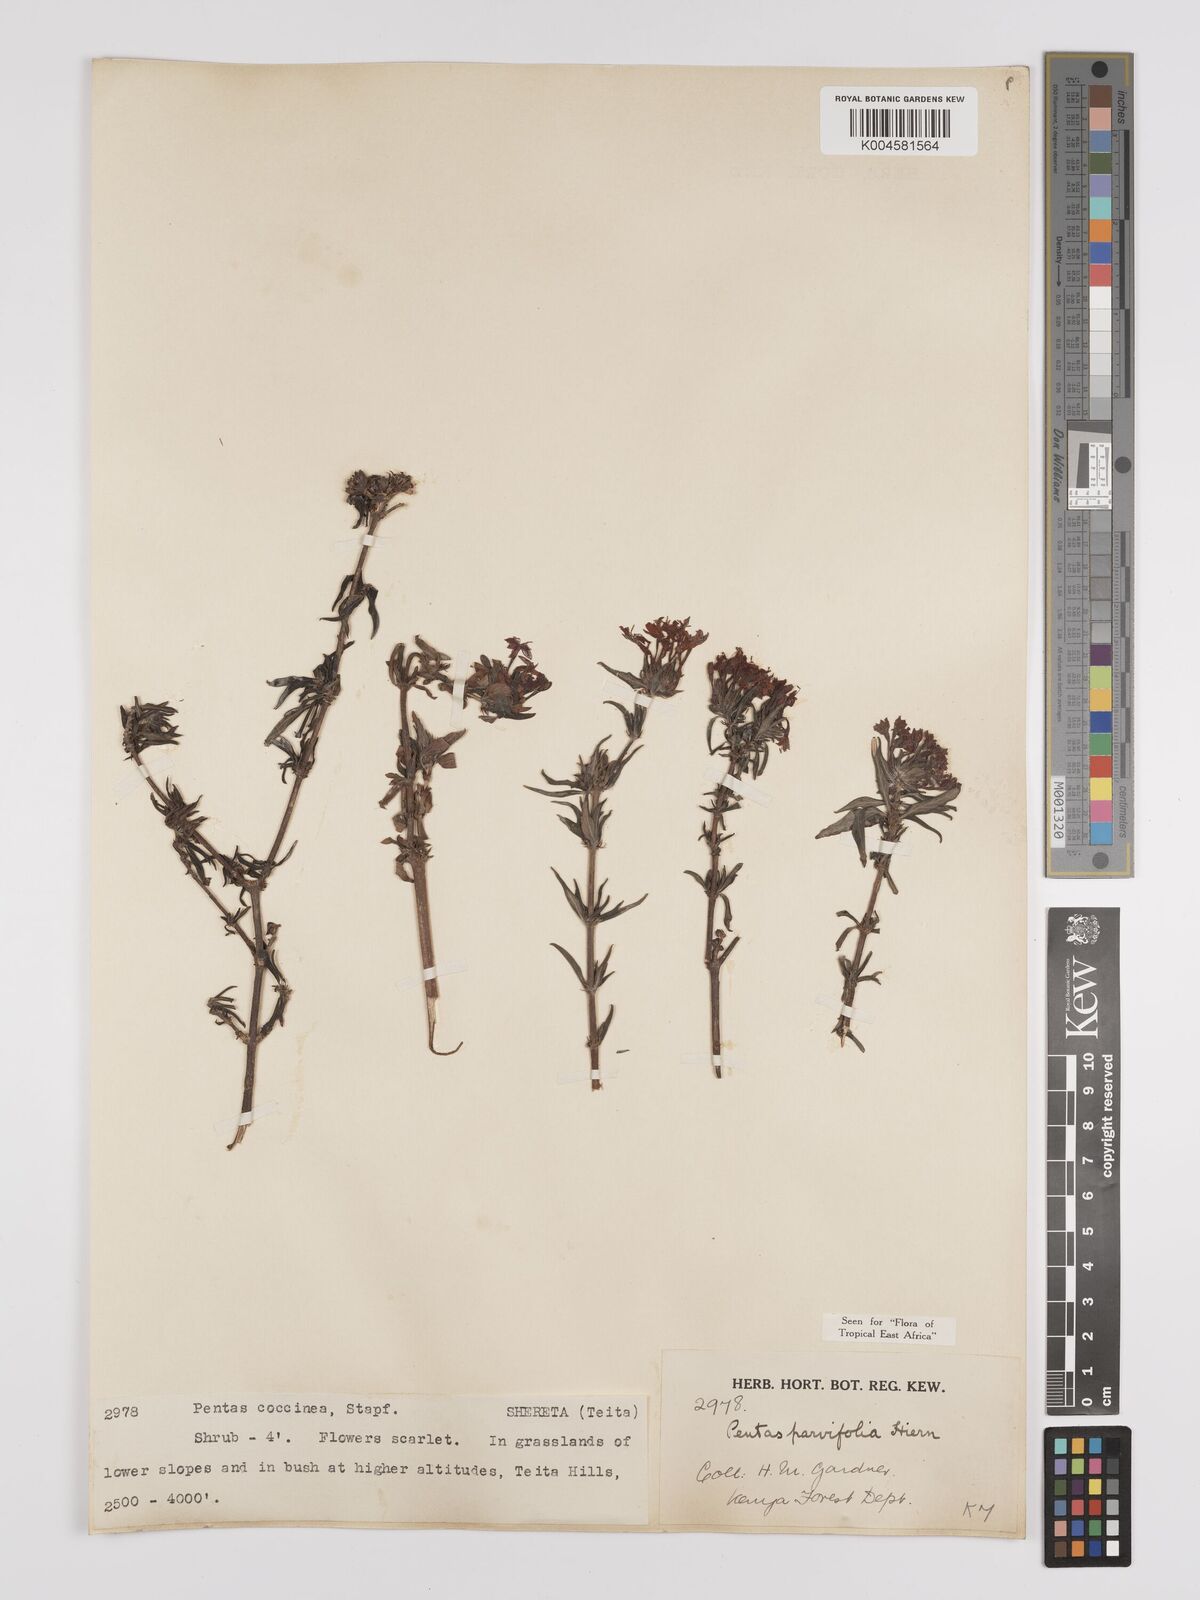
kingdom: Plantae
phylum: Tracheophyta
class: Magnoliopsida
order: Gentianales
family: Rubiaceae
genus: Rhodopentas
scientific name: Rhodopentas parvifolia
